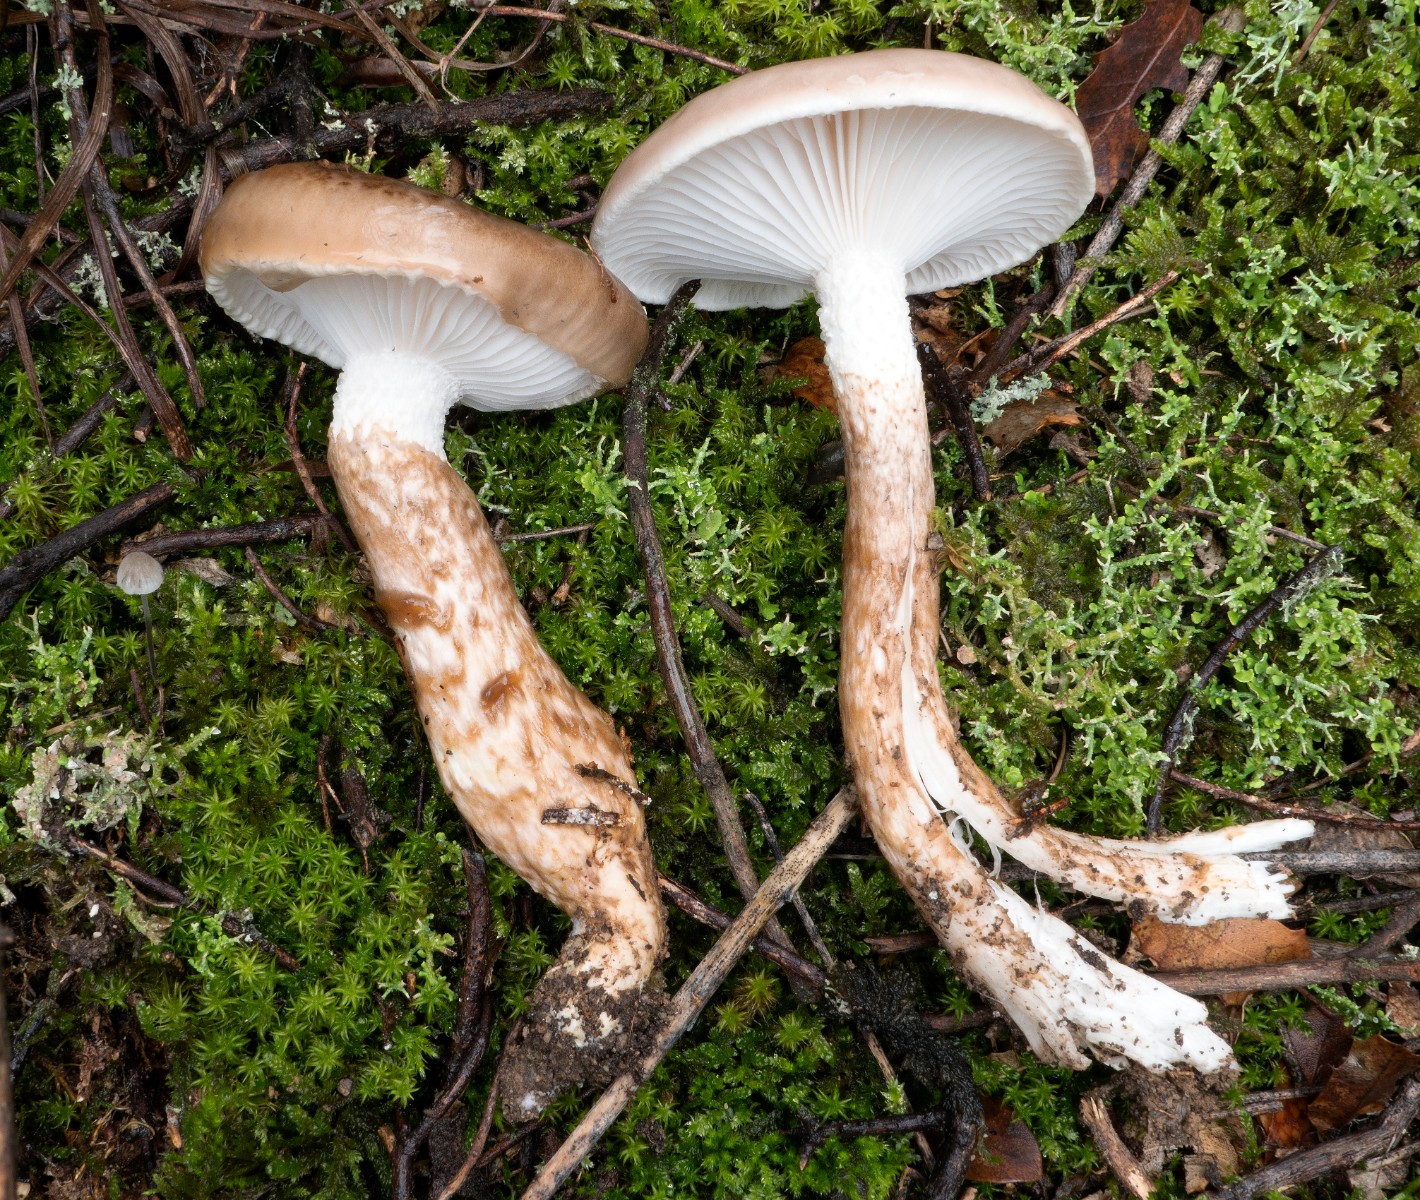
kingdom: Fungi
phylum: Basidiomycota
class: Agaricomycetes
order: Agaricales
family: Hygrophoraceae
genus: Hygrophorus
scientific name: Hygrophorus glutinifer
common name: tvefarvet sneglehat
